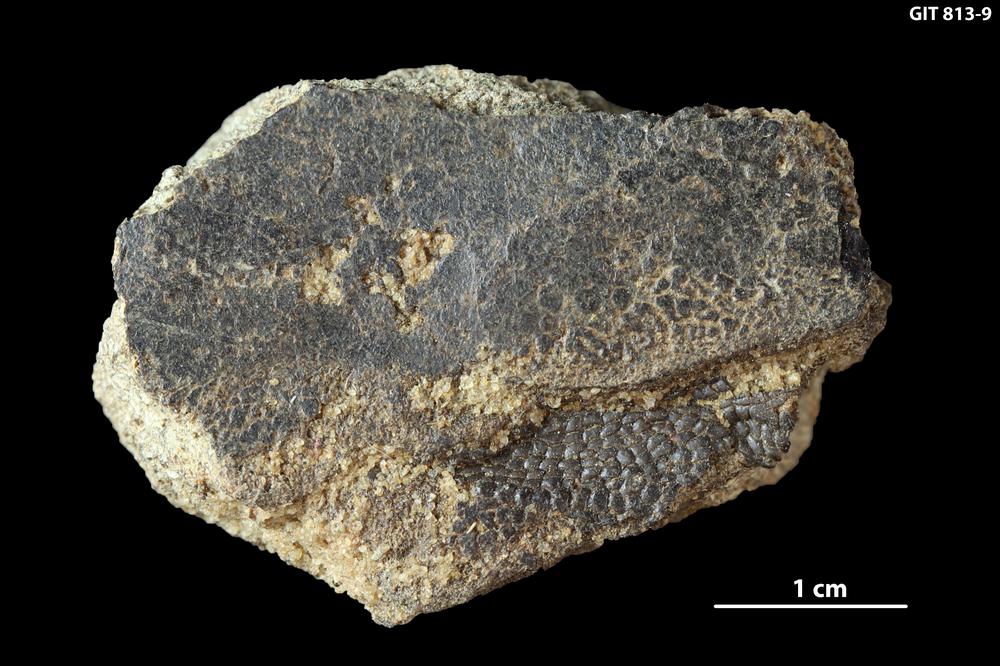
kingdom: Animalia
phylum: Chordata
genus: Schizosteus
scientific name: Schizosteus
